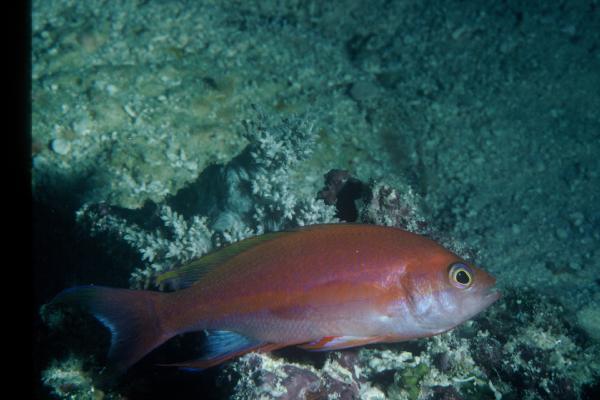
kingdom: Animalia
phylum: Chordata
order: Perciformes
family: Serranidae
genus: Pseudanthias
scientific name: Pseudanthias pulcherrimus
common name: Resplendent goldie
